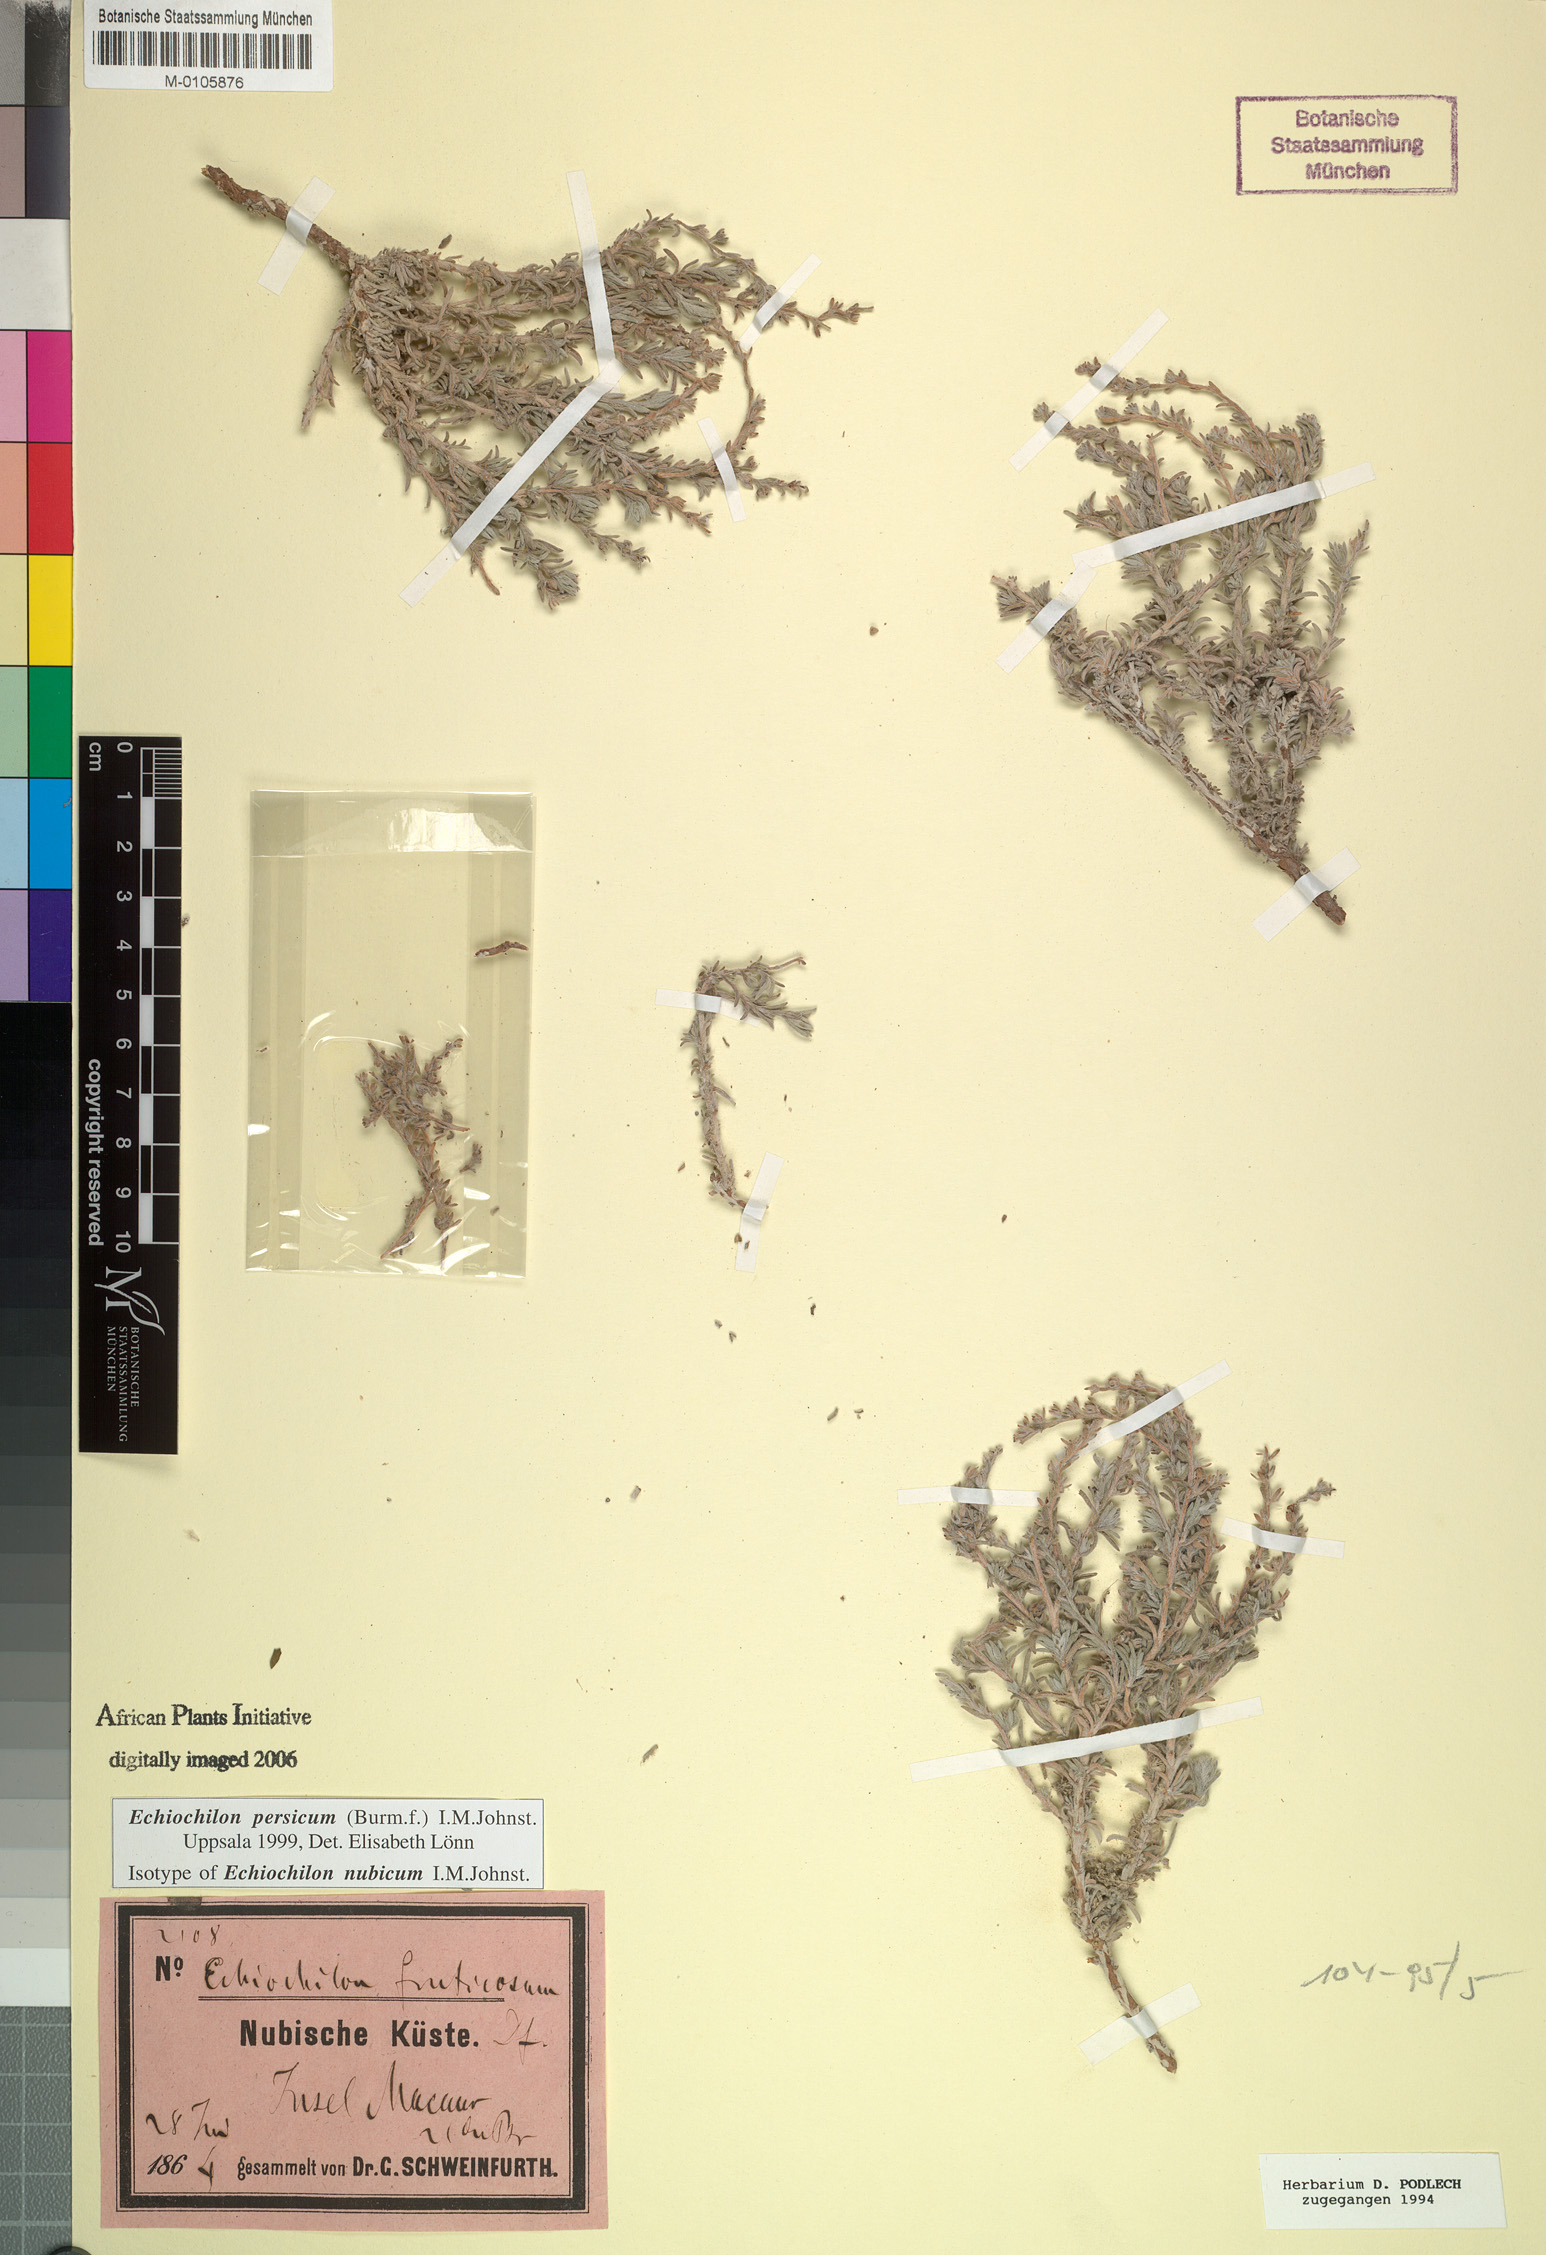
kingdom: Plantae
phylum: Tracheophyta
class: Magnoliopsida
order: Boraginales
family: Boraginaceae
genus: Echiochilon
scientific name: Echiochilon persicum
